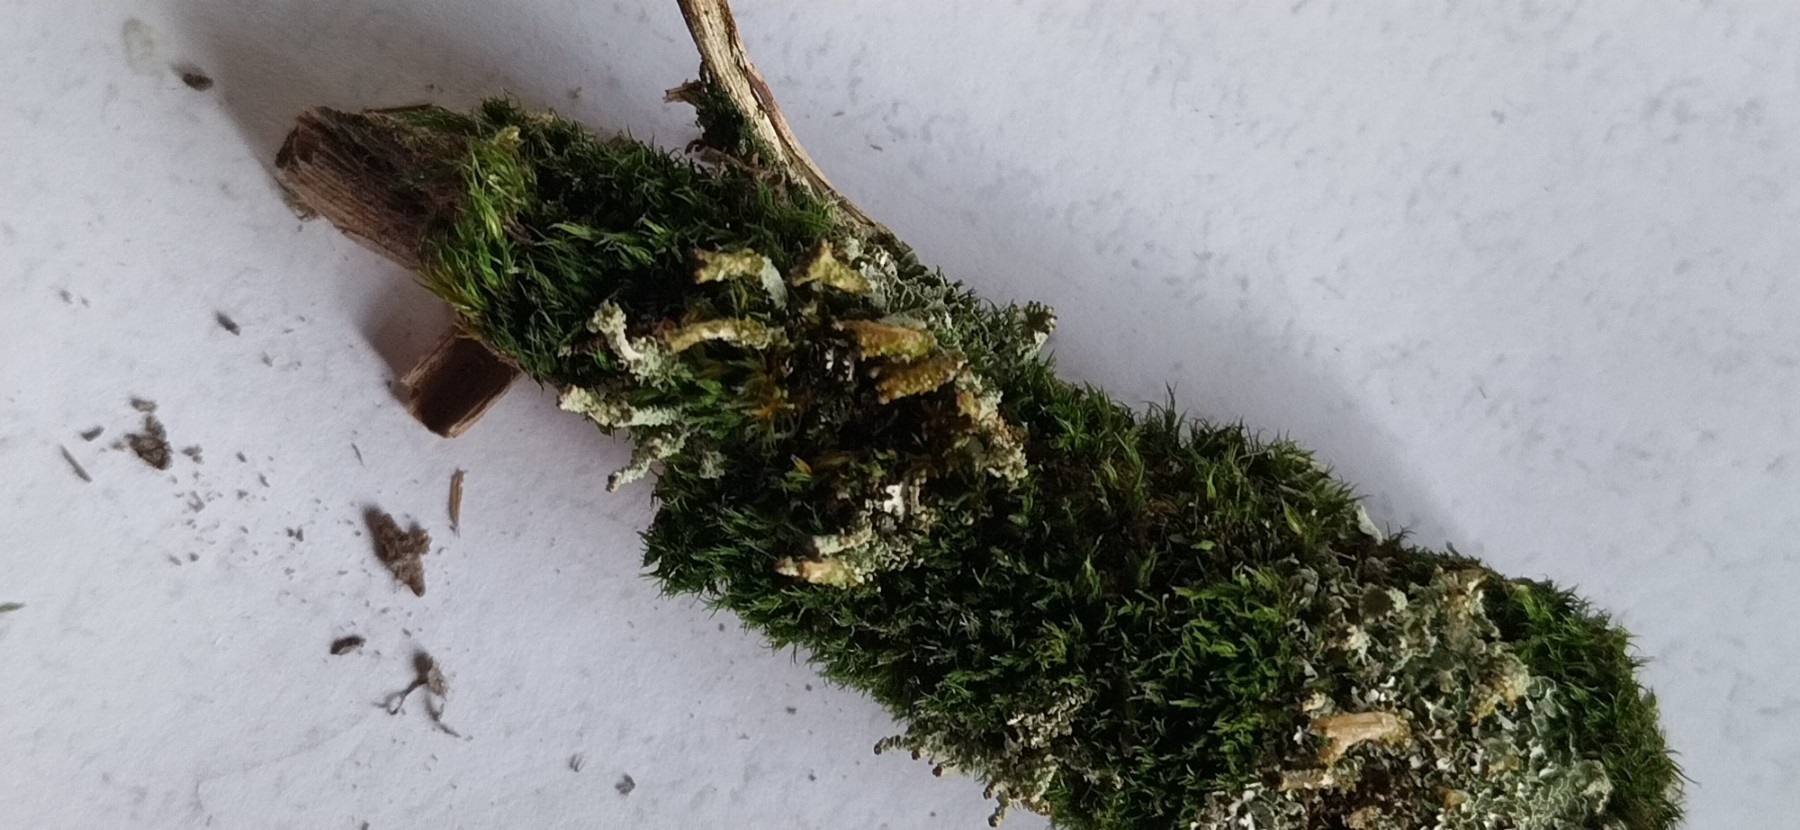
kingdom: Fungi
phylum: Ascomycota
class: Lecanoromycetes
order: Lecanorales
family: Cladoniaceae
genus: Cladonia
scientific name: Cladonia digitata
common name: finger-bægerlav
